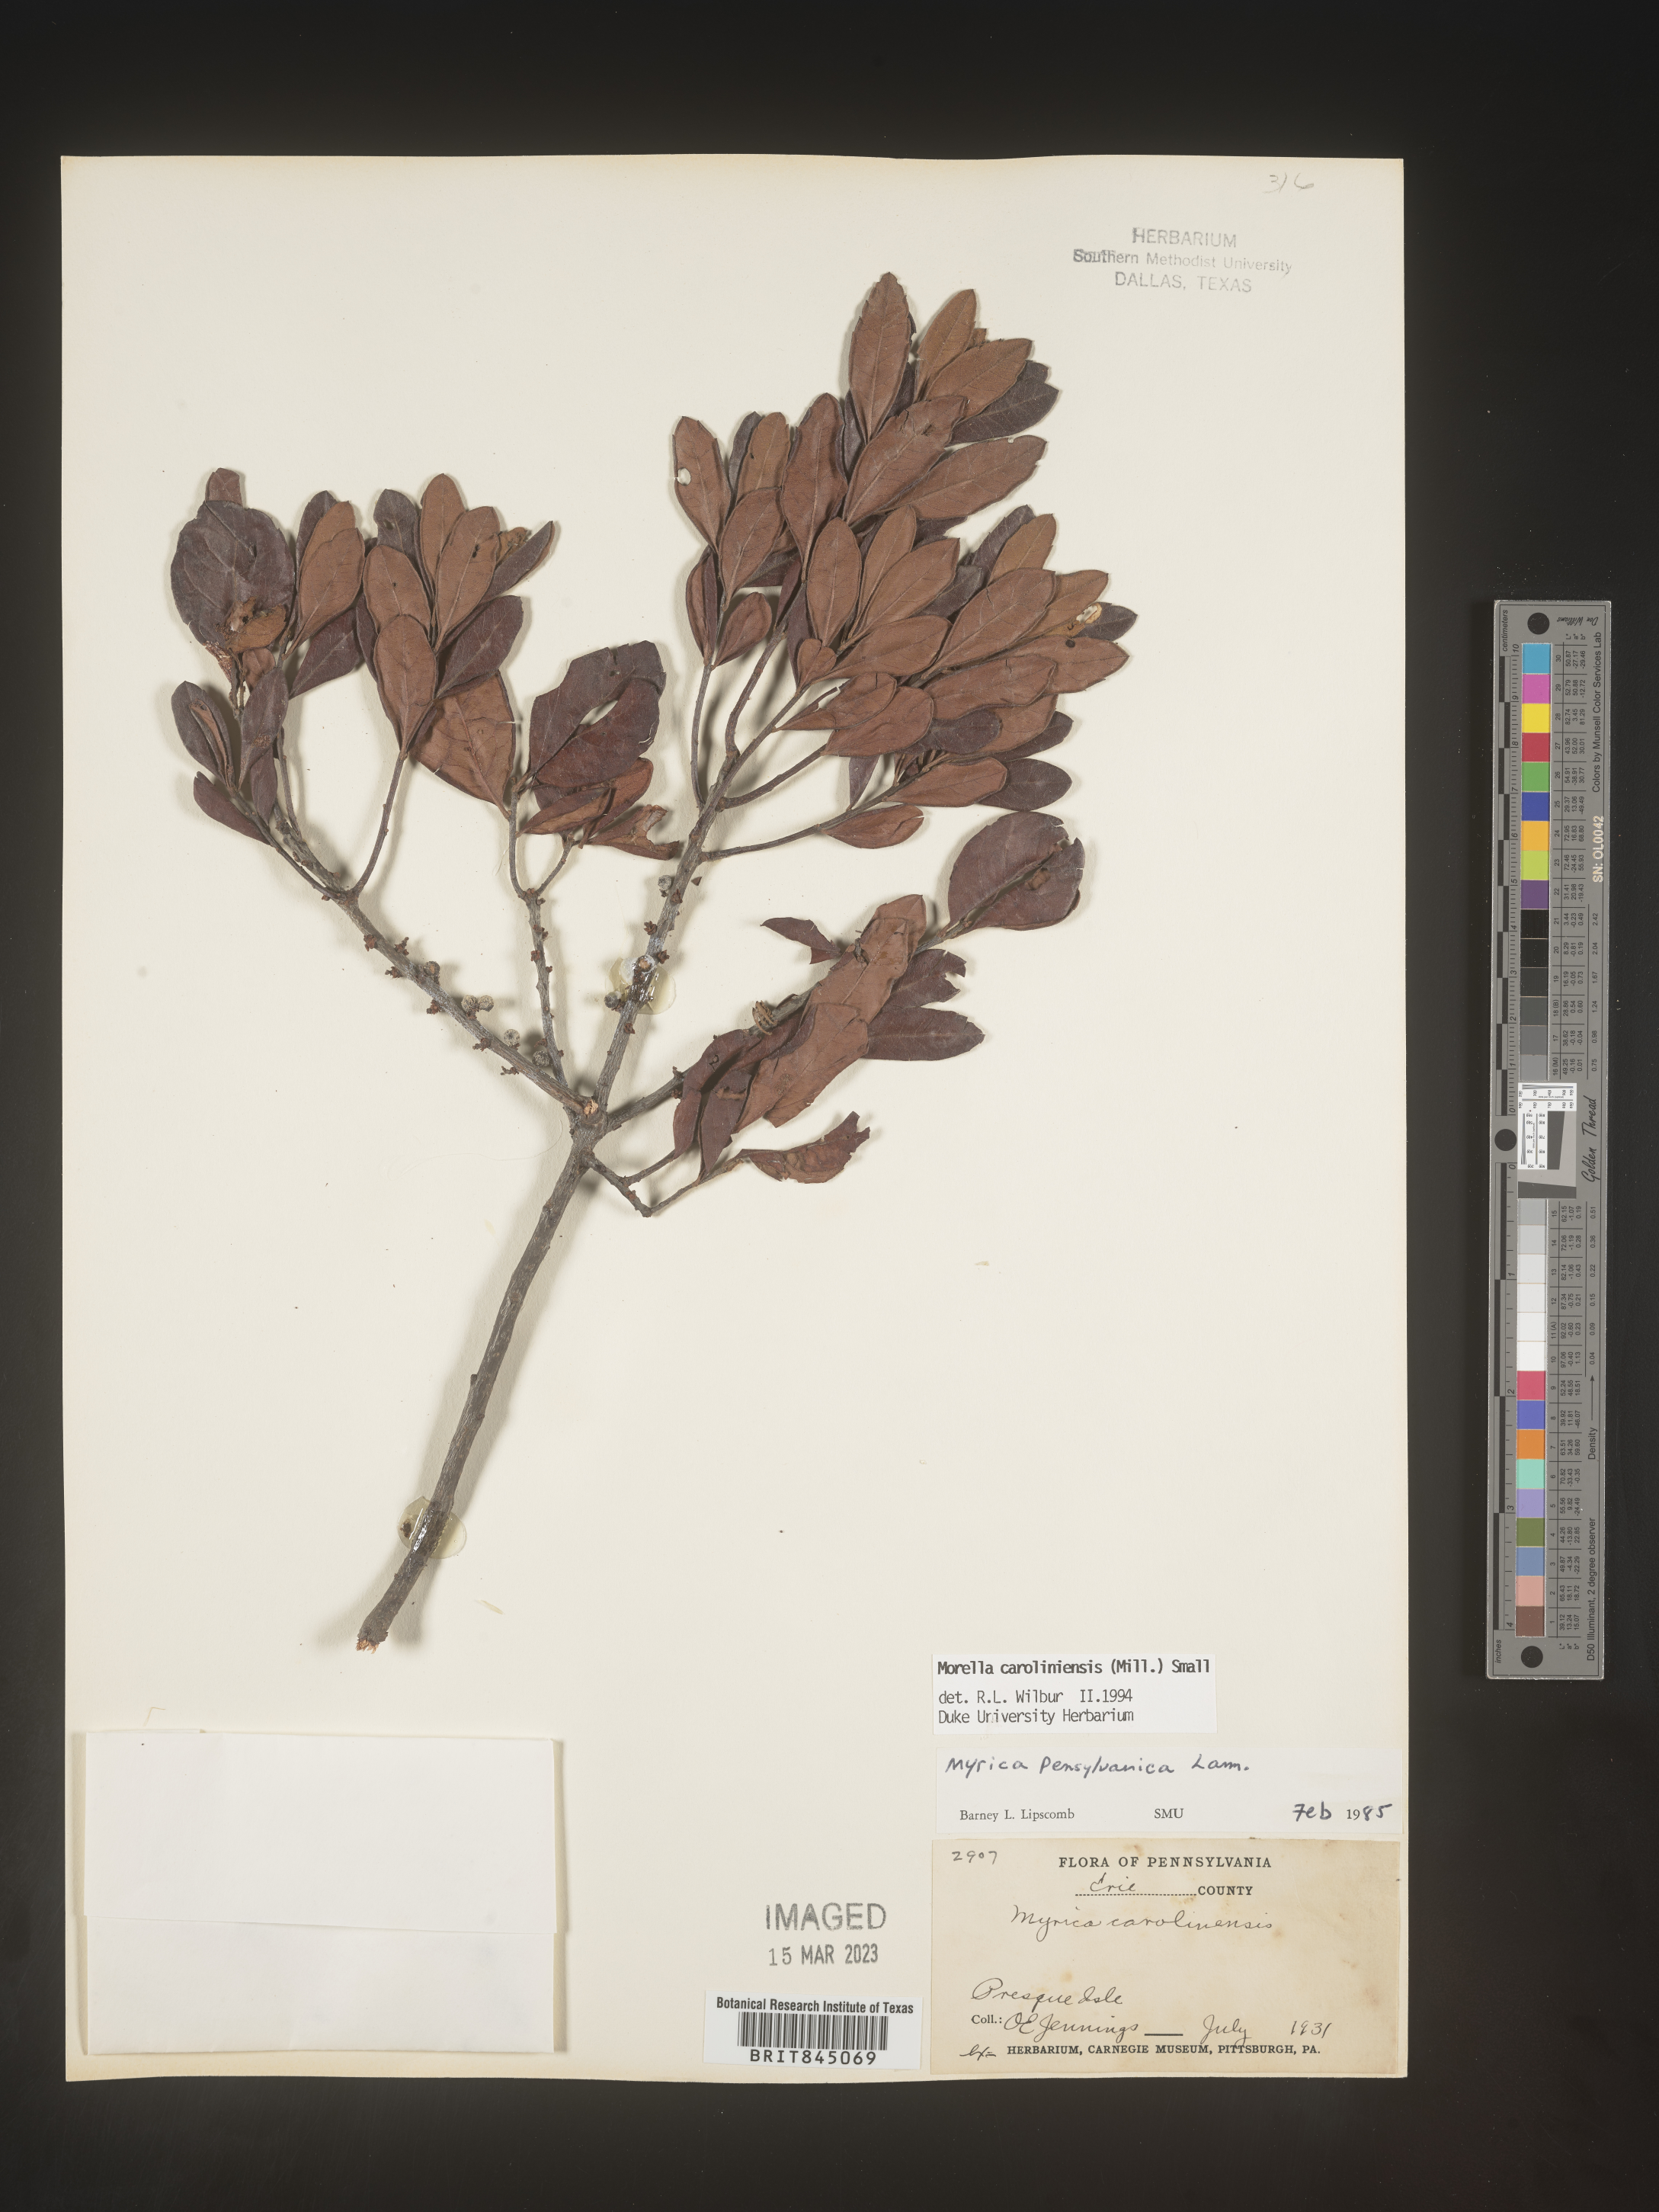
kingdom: Plantae
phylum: Tracheophyta
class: Magnoliopsida
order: Fagales
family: Myricaceae
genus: Morella
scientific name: Morella caroliniensis
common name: Evergreen bayberry
